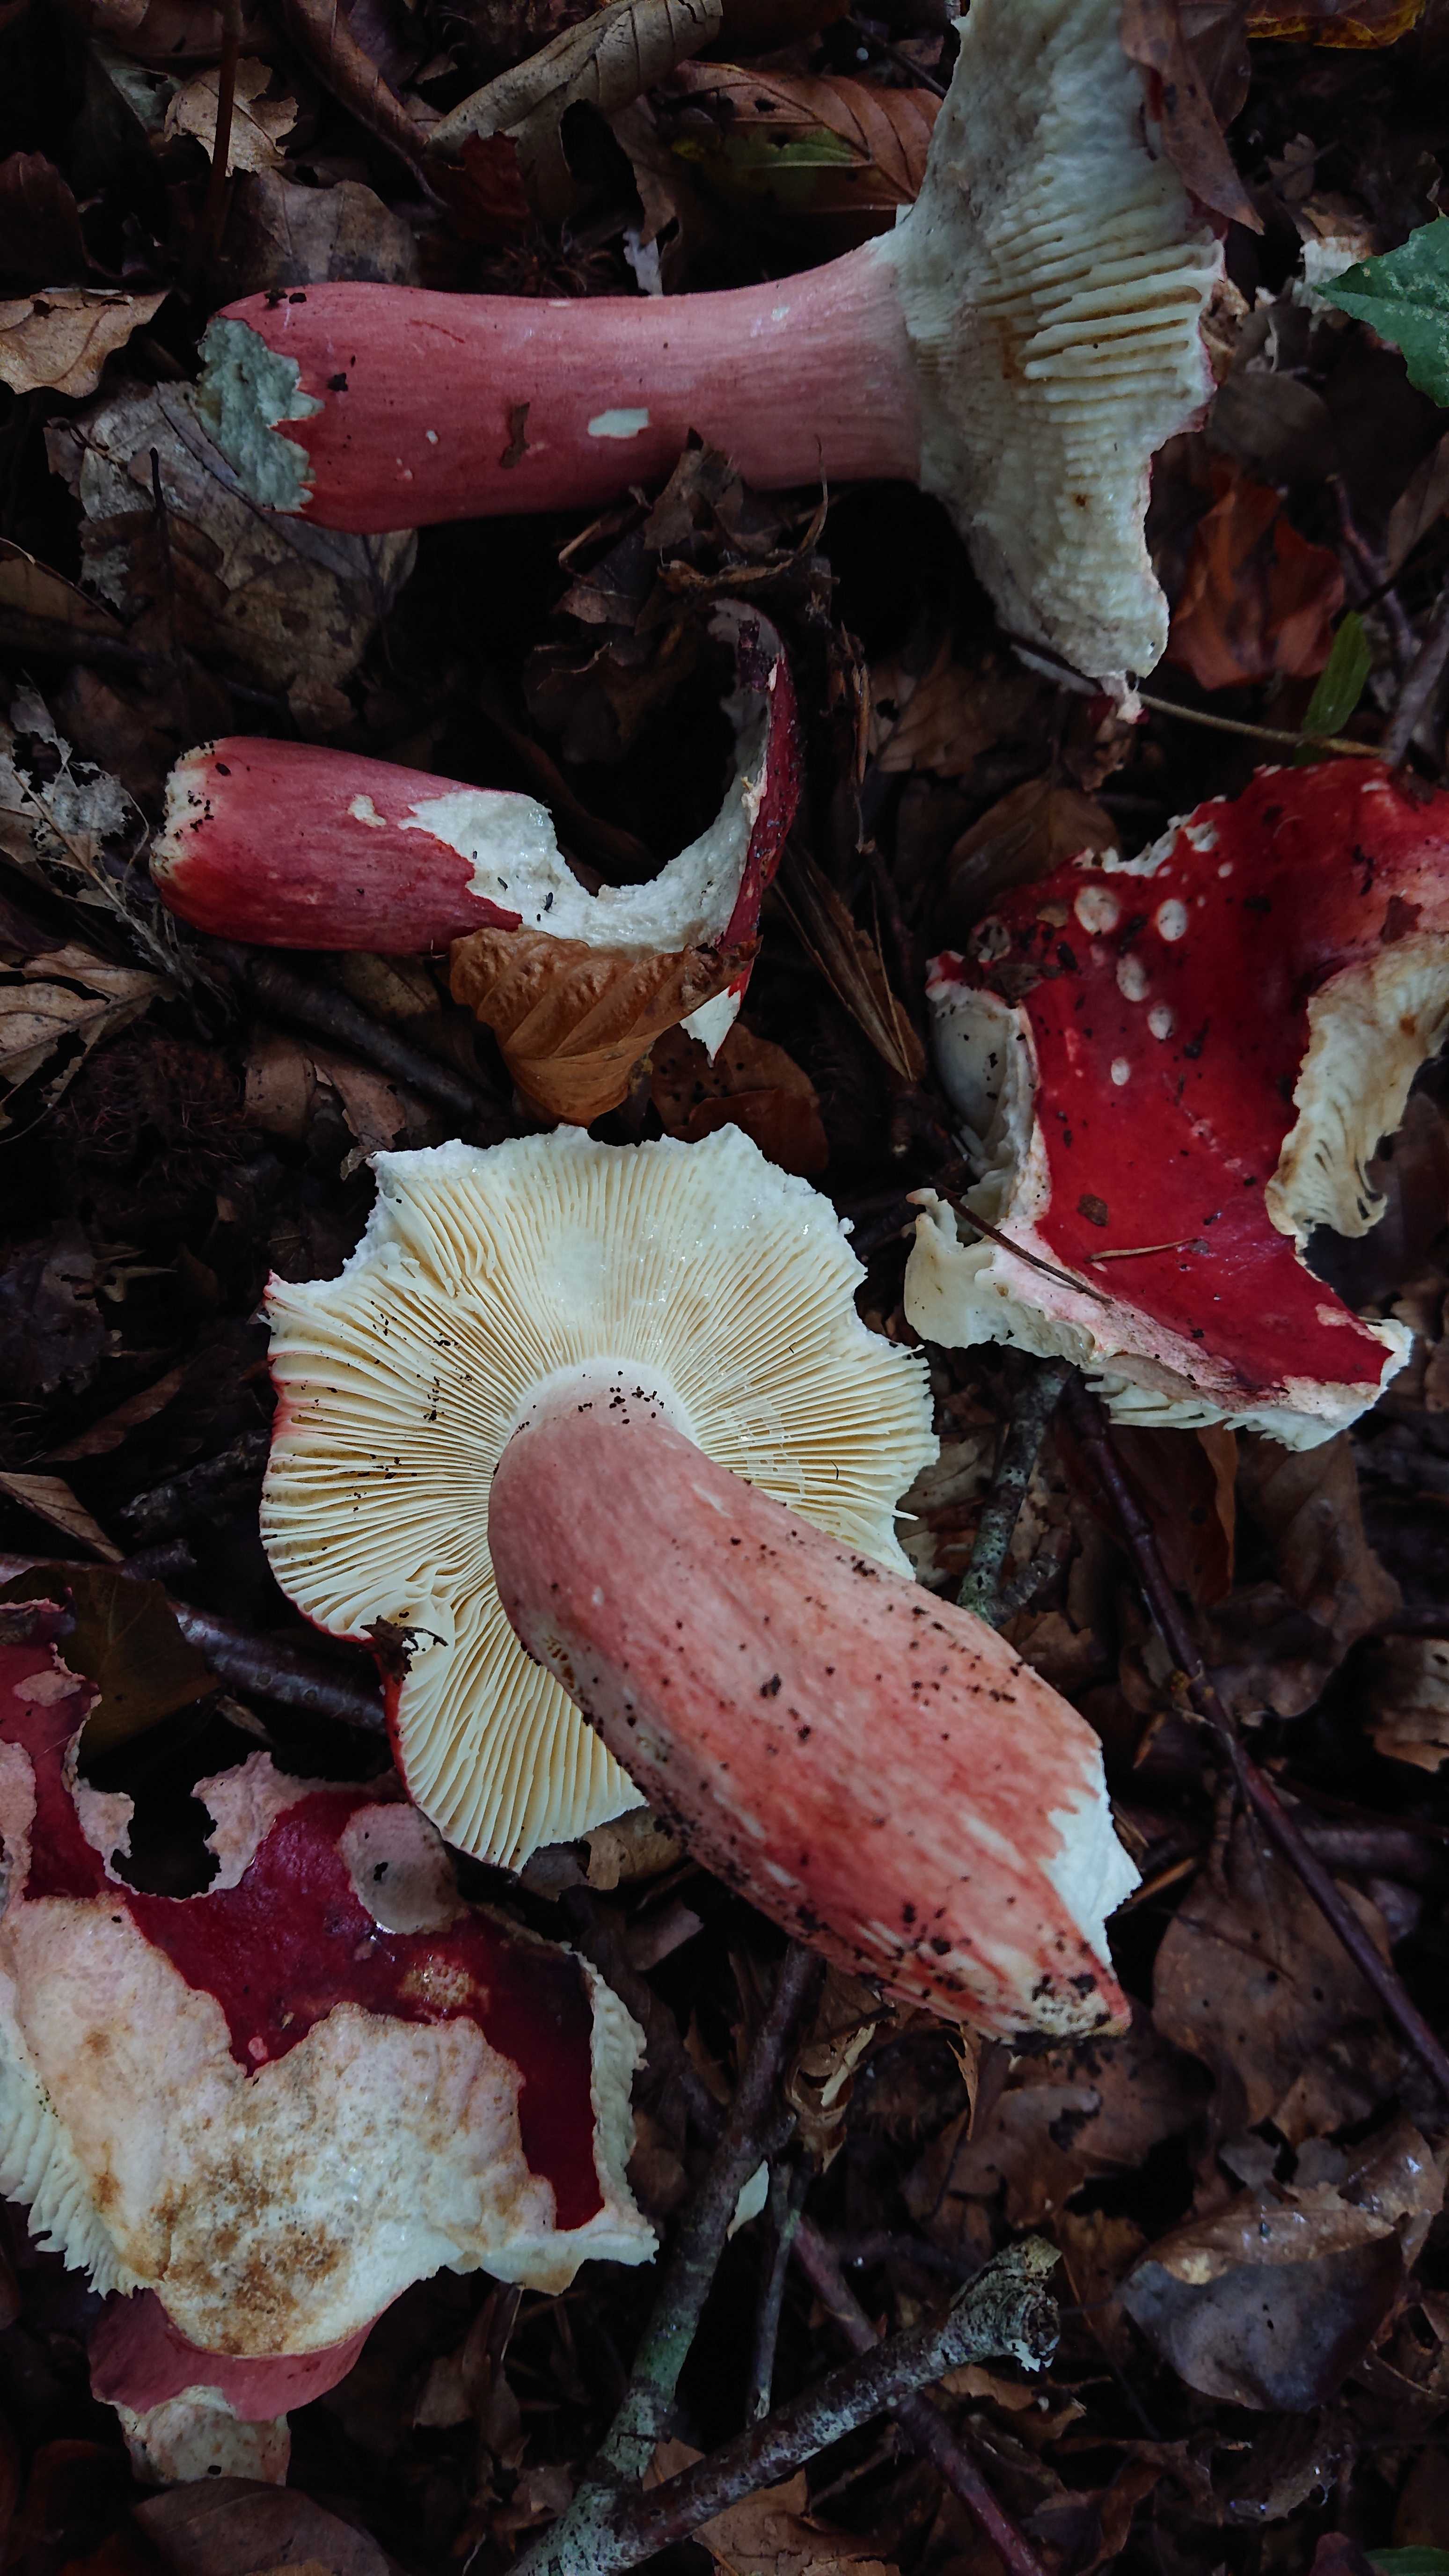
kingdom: Fungi
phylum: Basidiomycota
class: Agaricomycetes
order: Russulales
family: Russulaceae
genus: Russula
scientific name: Russula rosea
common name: fastkødet skørhat
